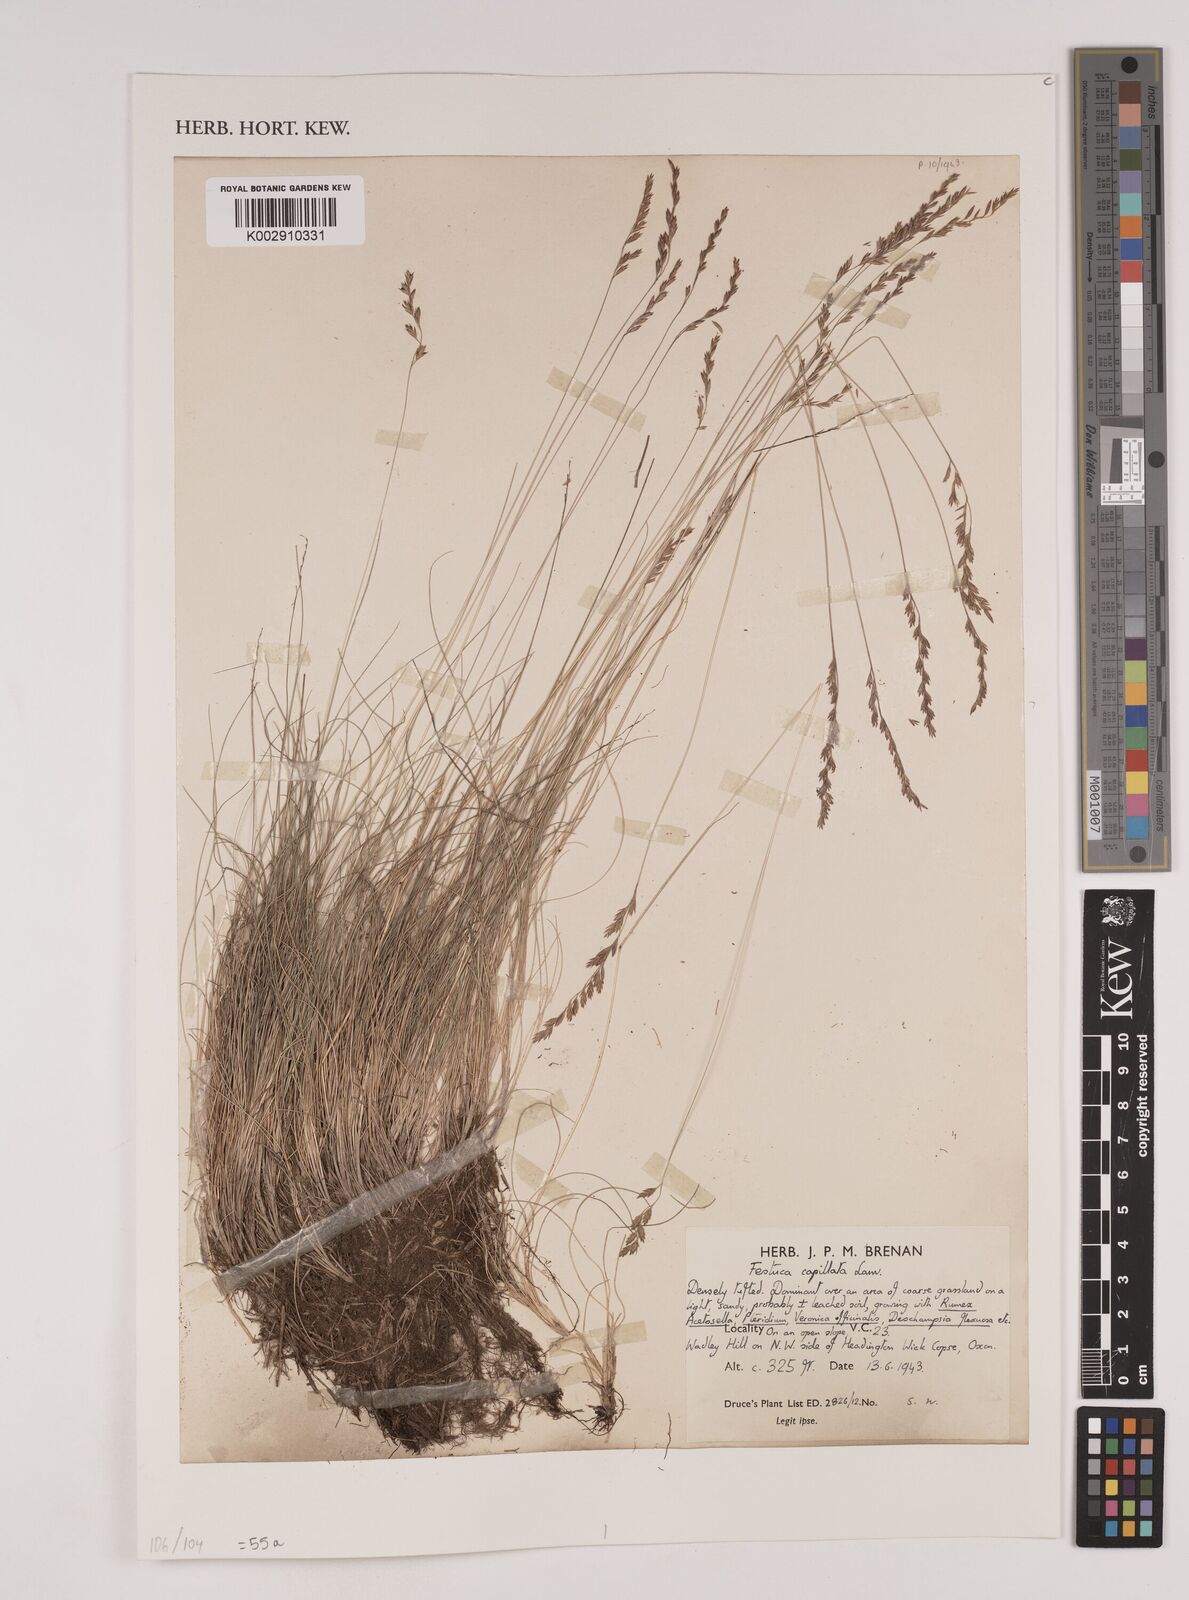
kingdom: Plantae
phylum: Tracheophyta
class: Liliopsida
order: Poales
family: Poaceae
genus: Festuca
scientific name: Festuca amethystina
